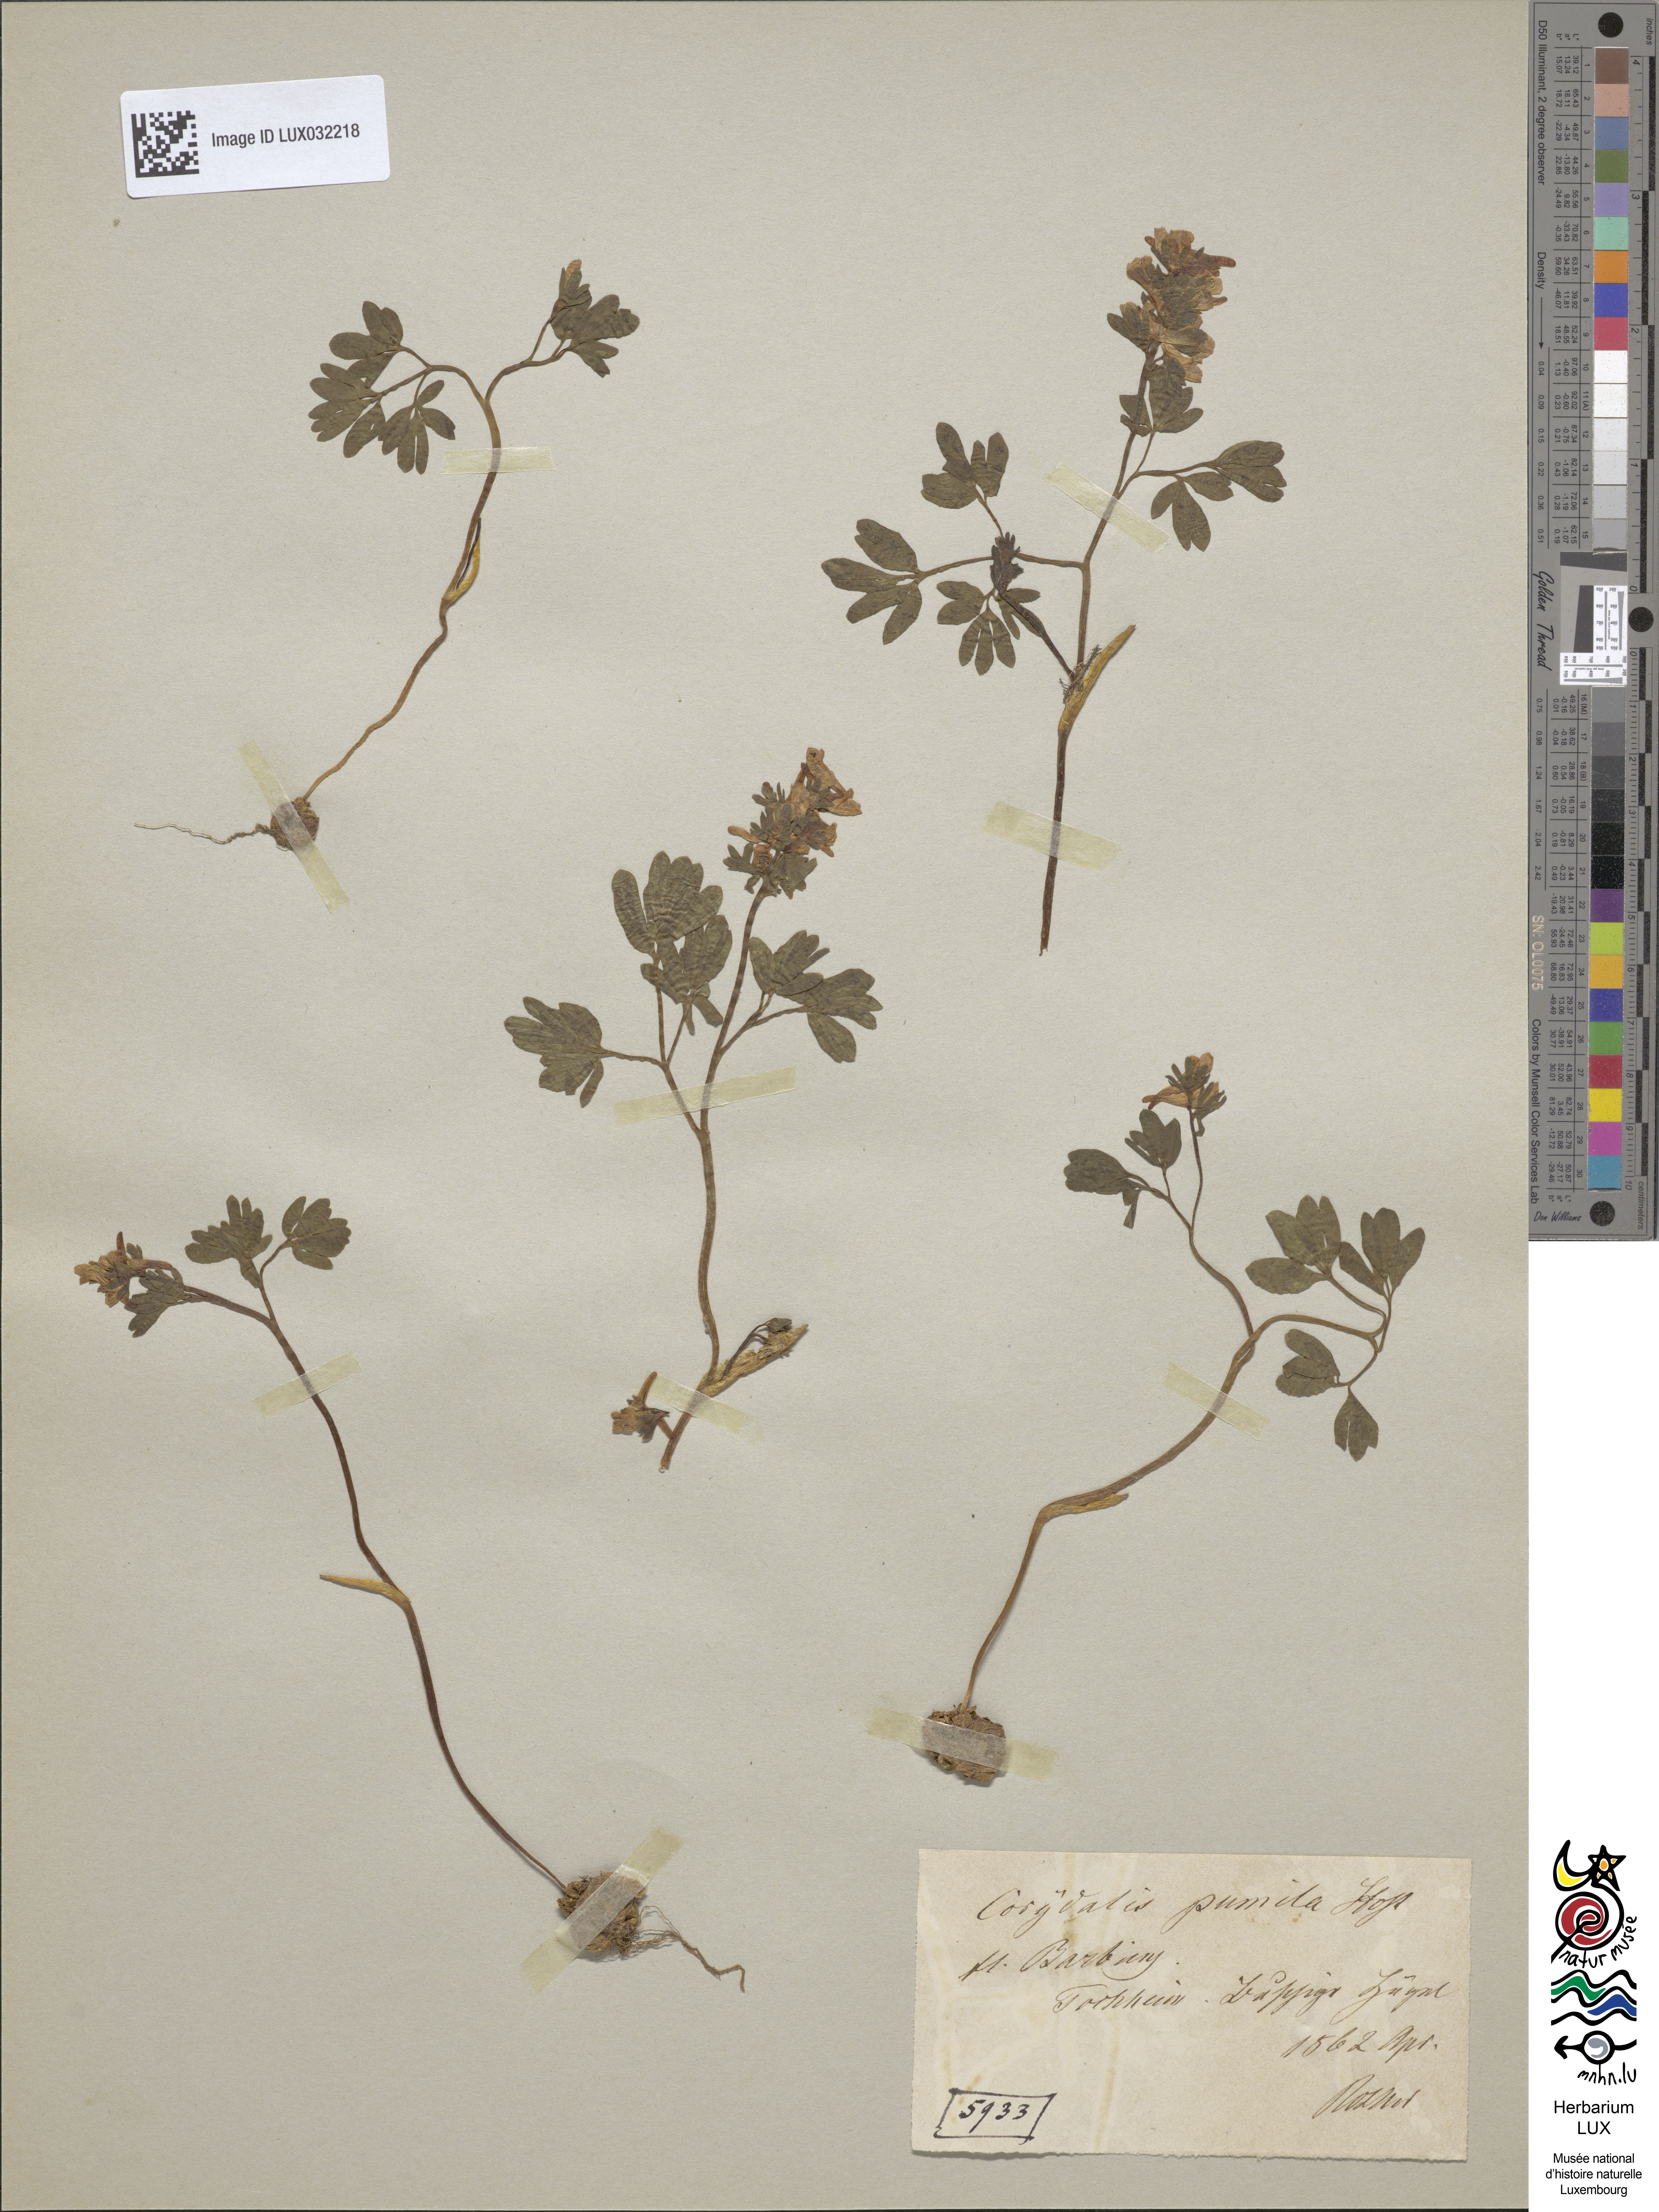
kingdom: Plantae
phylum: Tracheophyta
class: Magnoliopsida
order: Ranunculales
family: Papaveraceae
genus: Corydalis
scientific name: Corydalis pumila
